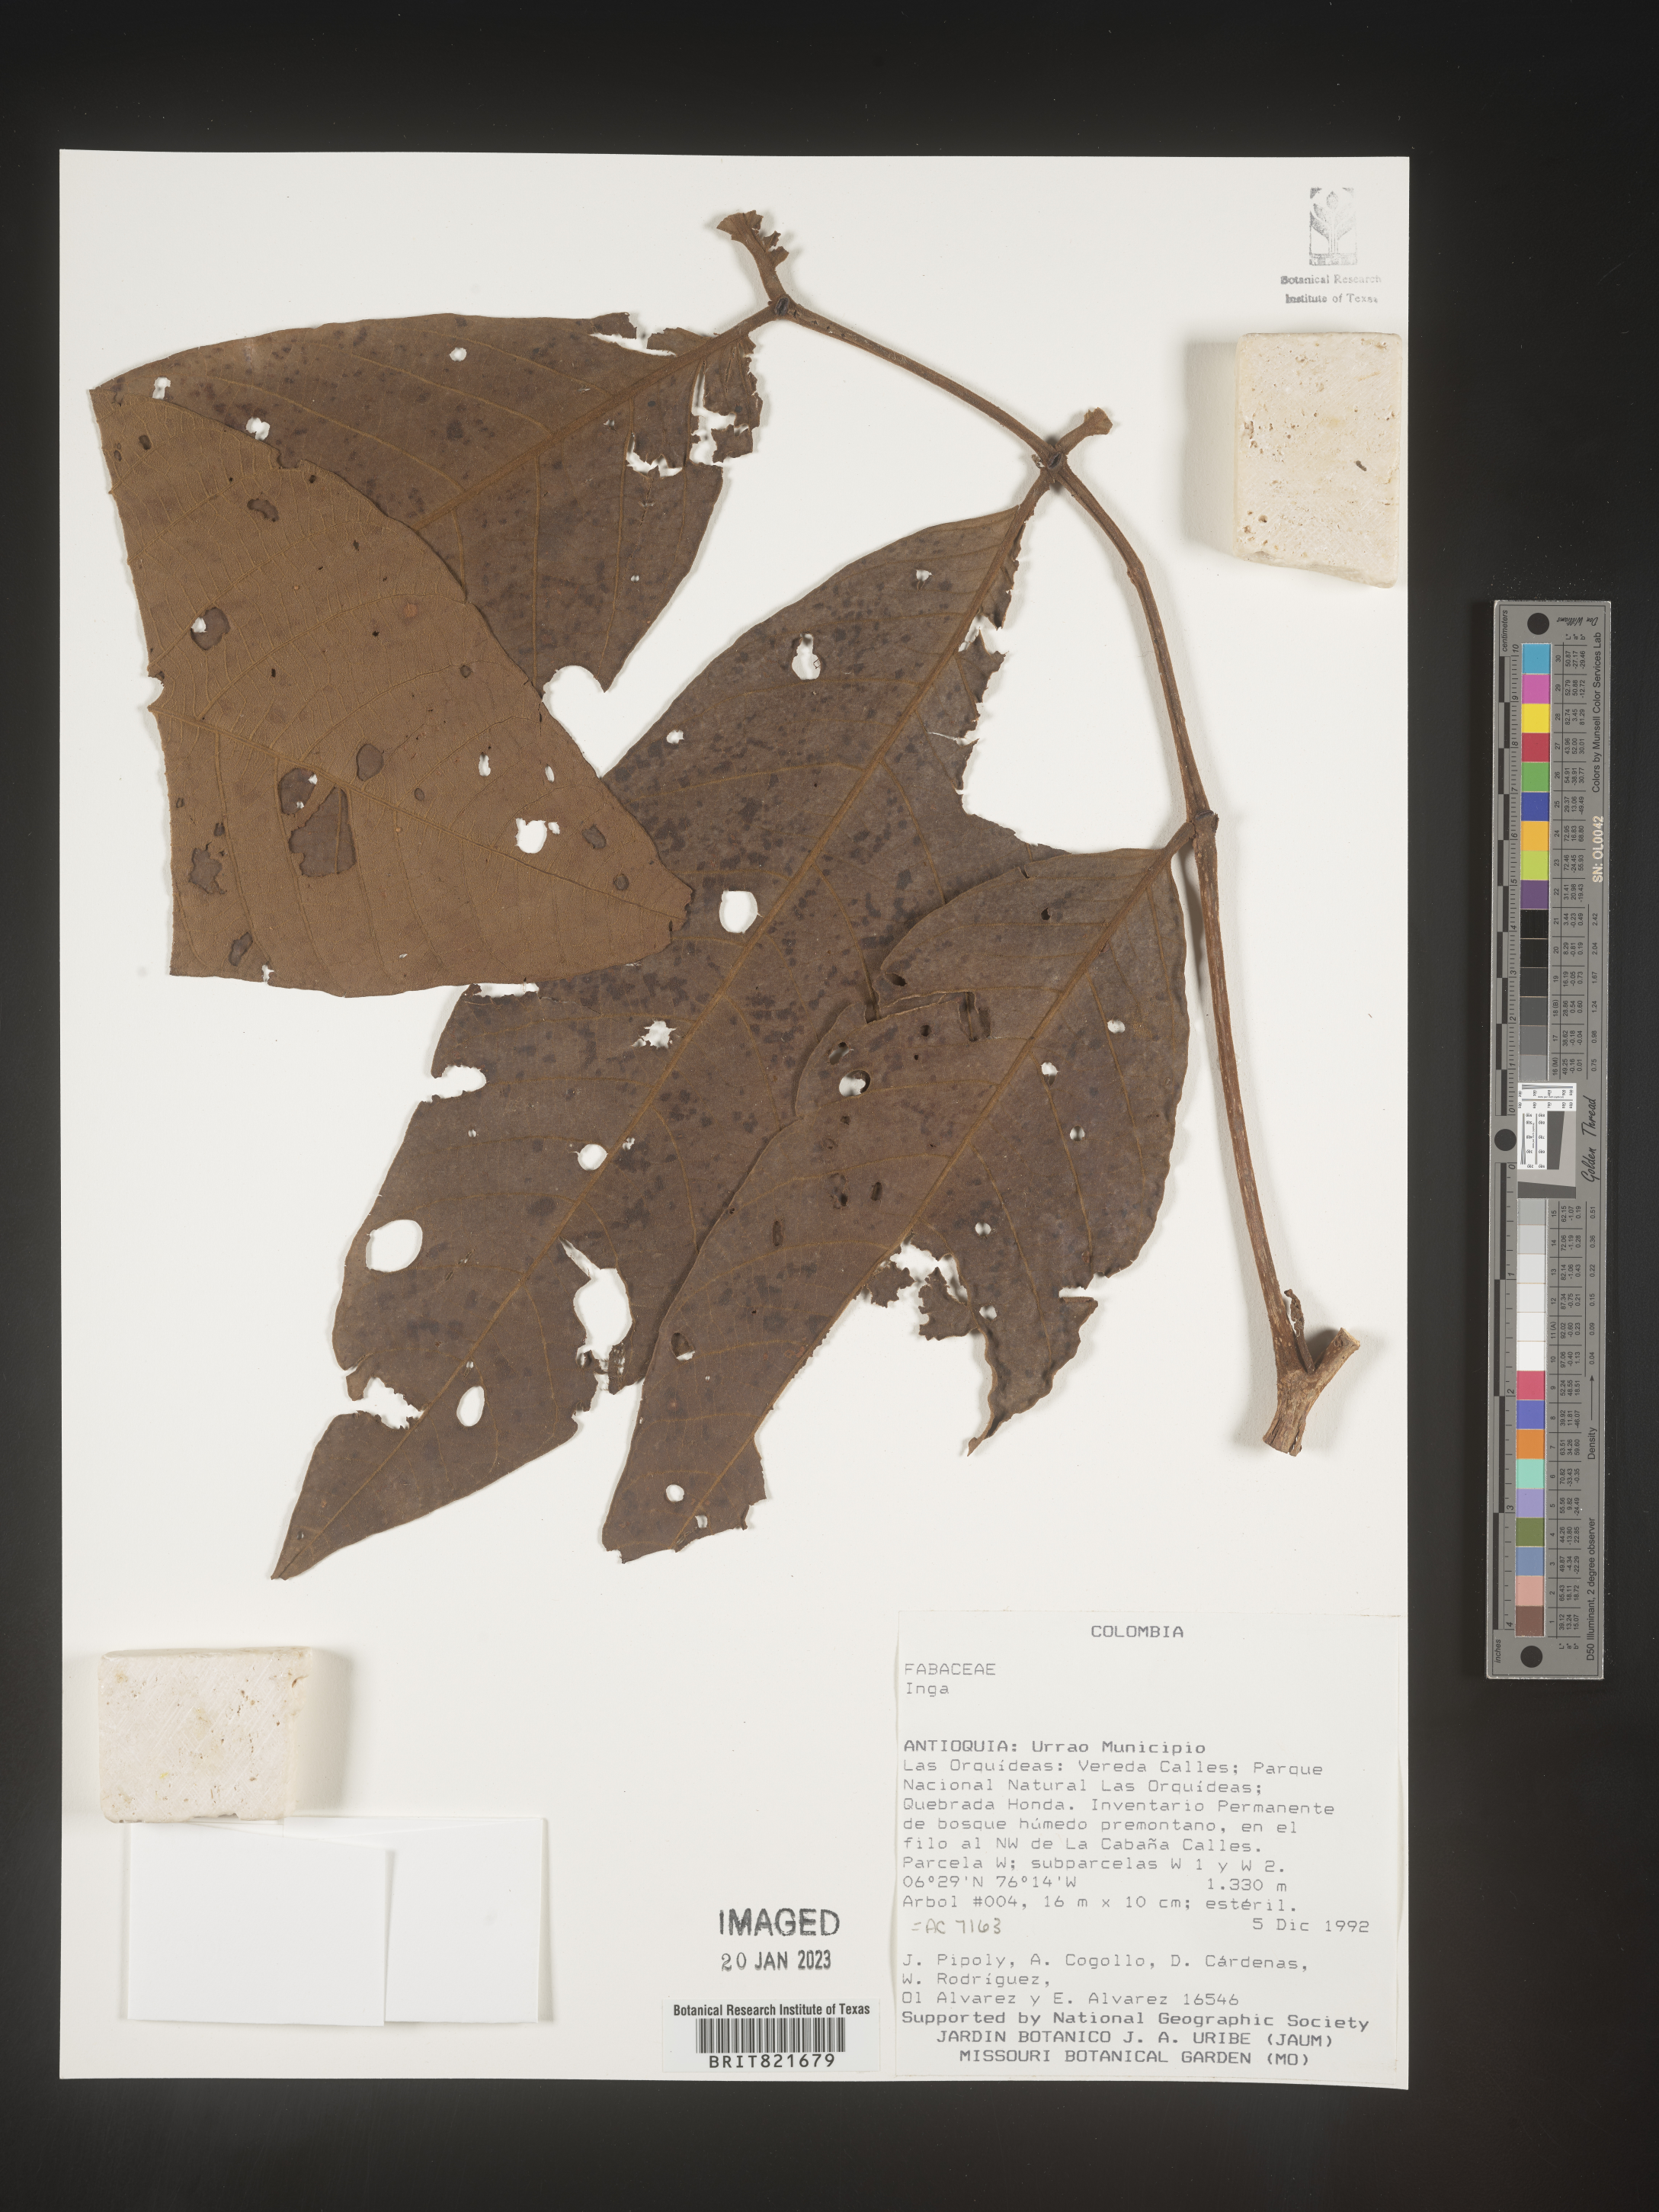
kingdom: Plantae
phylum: Tracheophyta
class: Magnoliopsida
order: Fabales
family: Fabaceae
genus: Inga
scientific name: Inga
